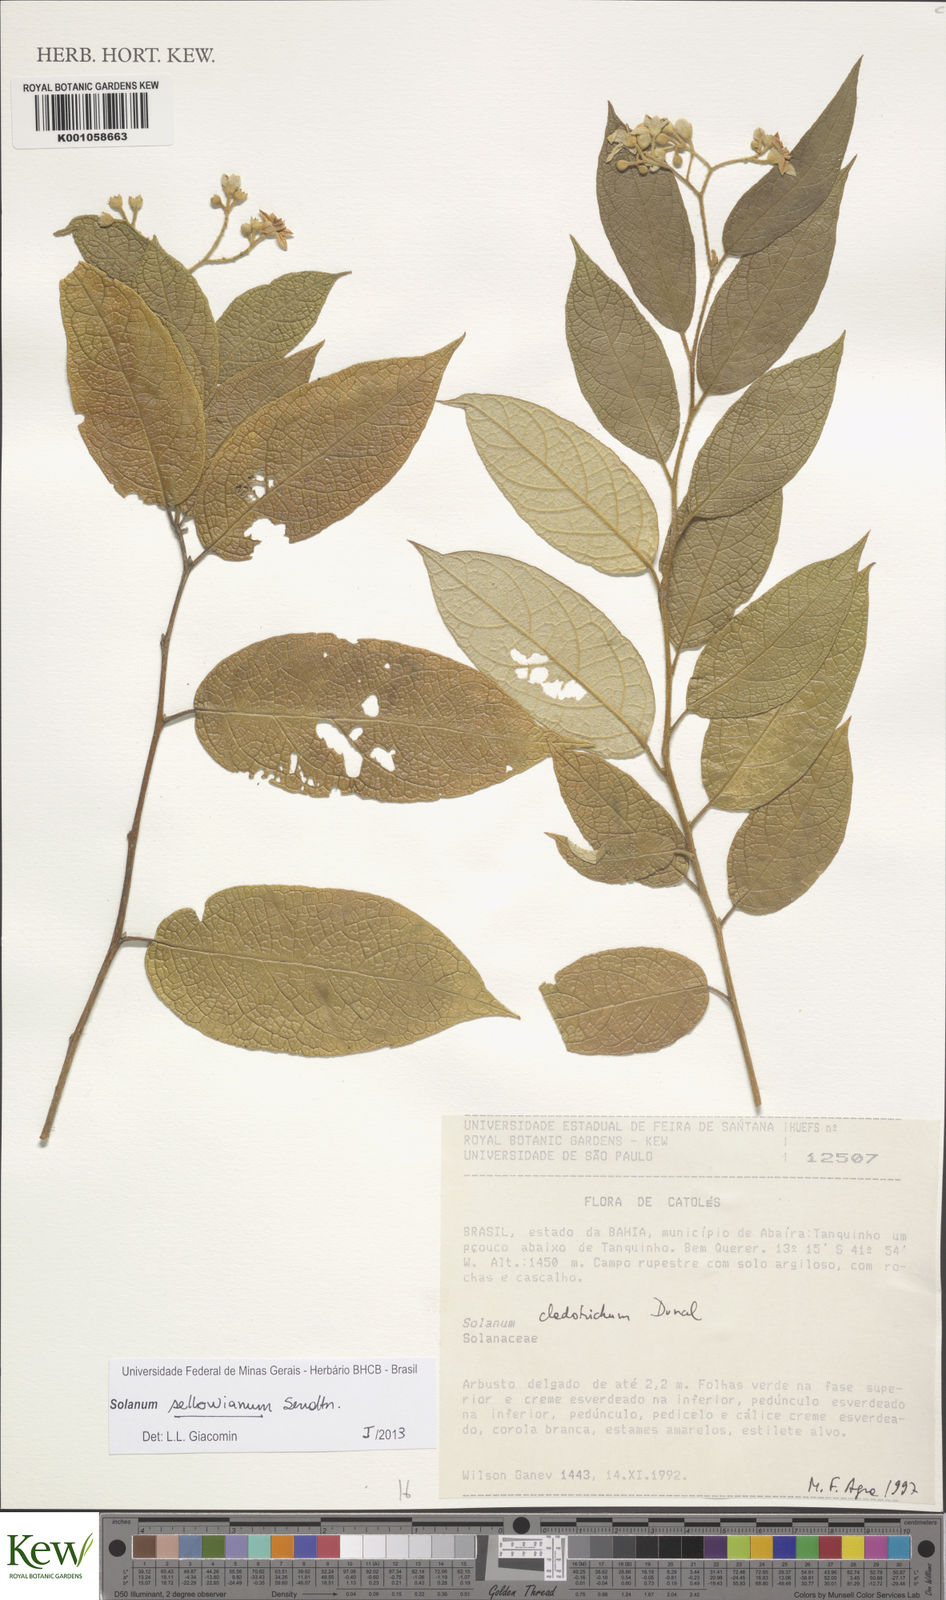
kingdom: Plantae
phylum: Tracheophyta
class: Magnoliopsida
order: Solanales
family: Solanaceae
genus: Solanum
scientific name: Solanum sellowianum
